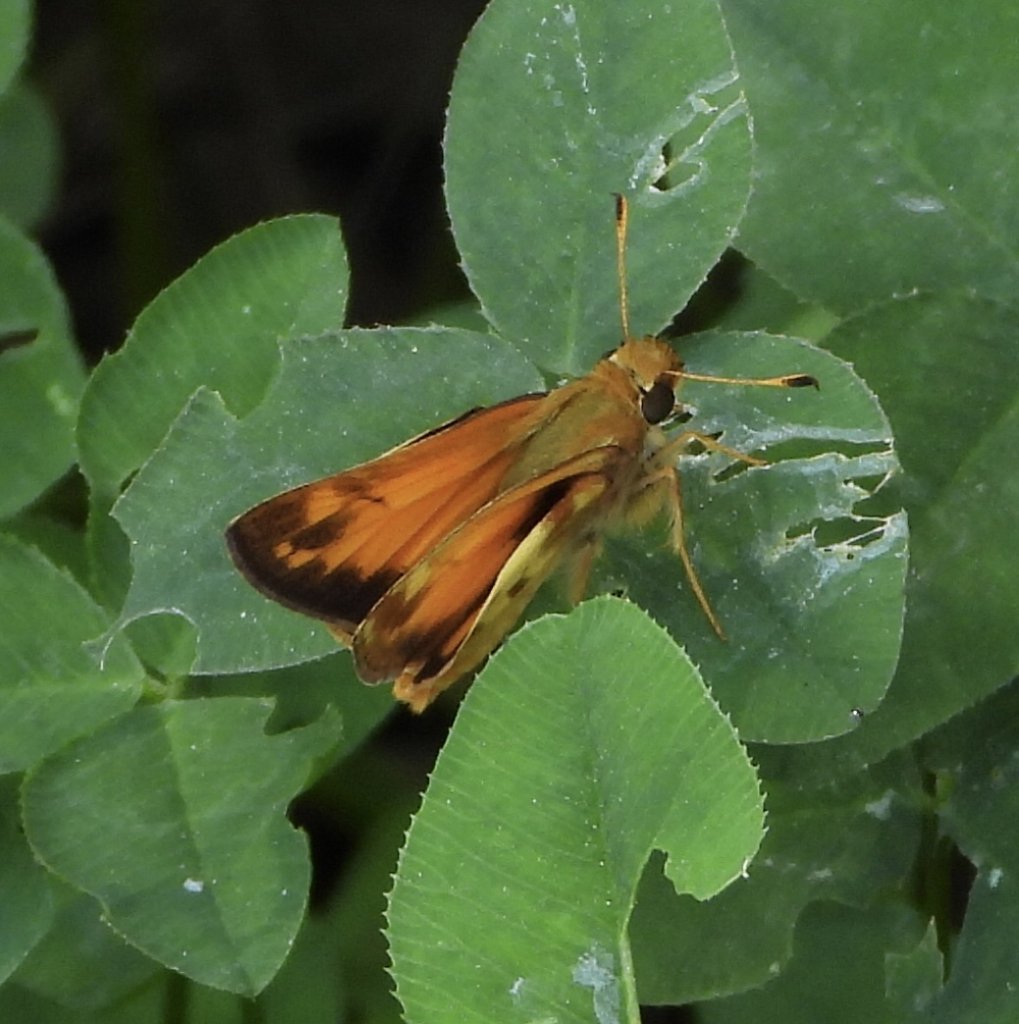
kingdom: Animalia
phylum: Arthropoda
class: Insecta
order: Lepidoptera
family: Hesperiidae
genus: Lon
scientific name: Lon zabulon
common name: Zabulon Skipper
